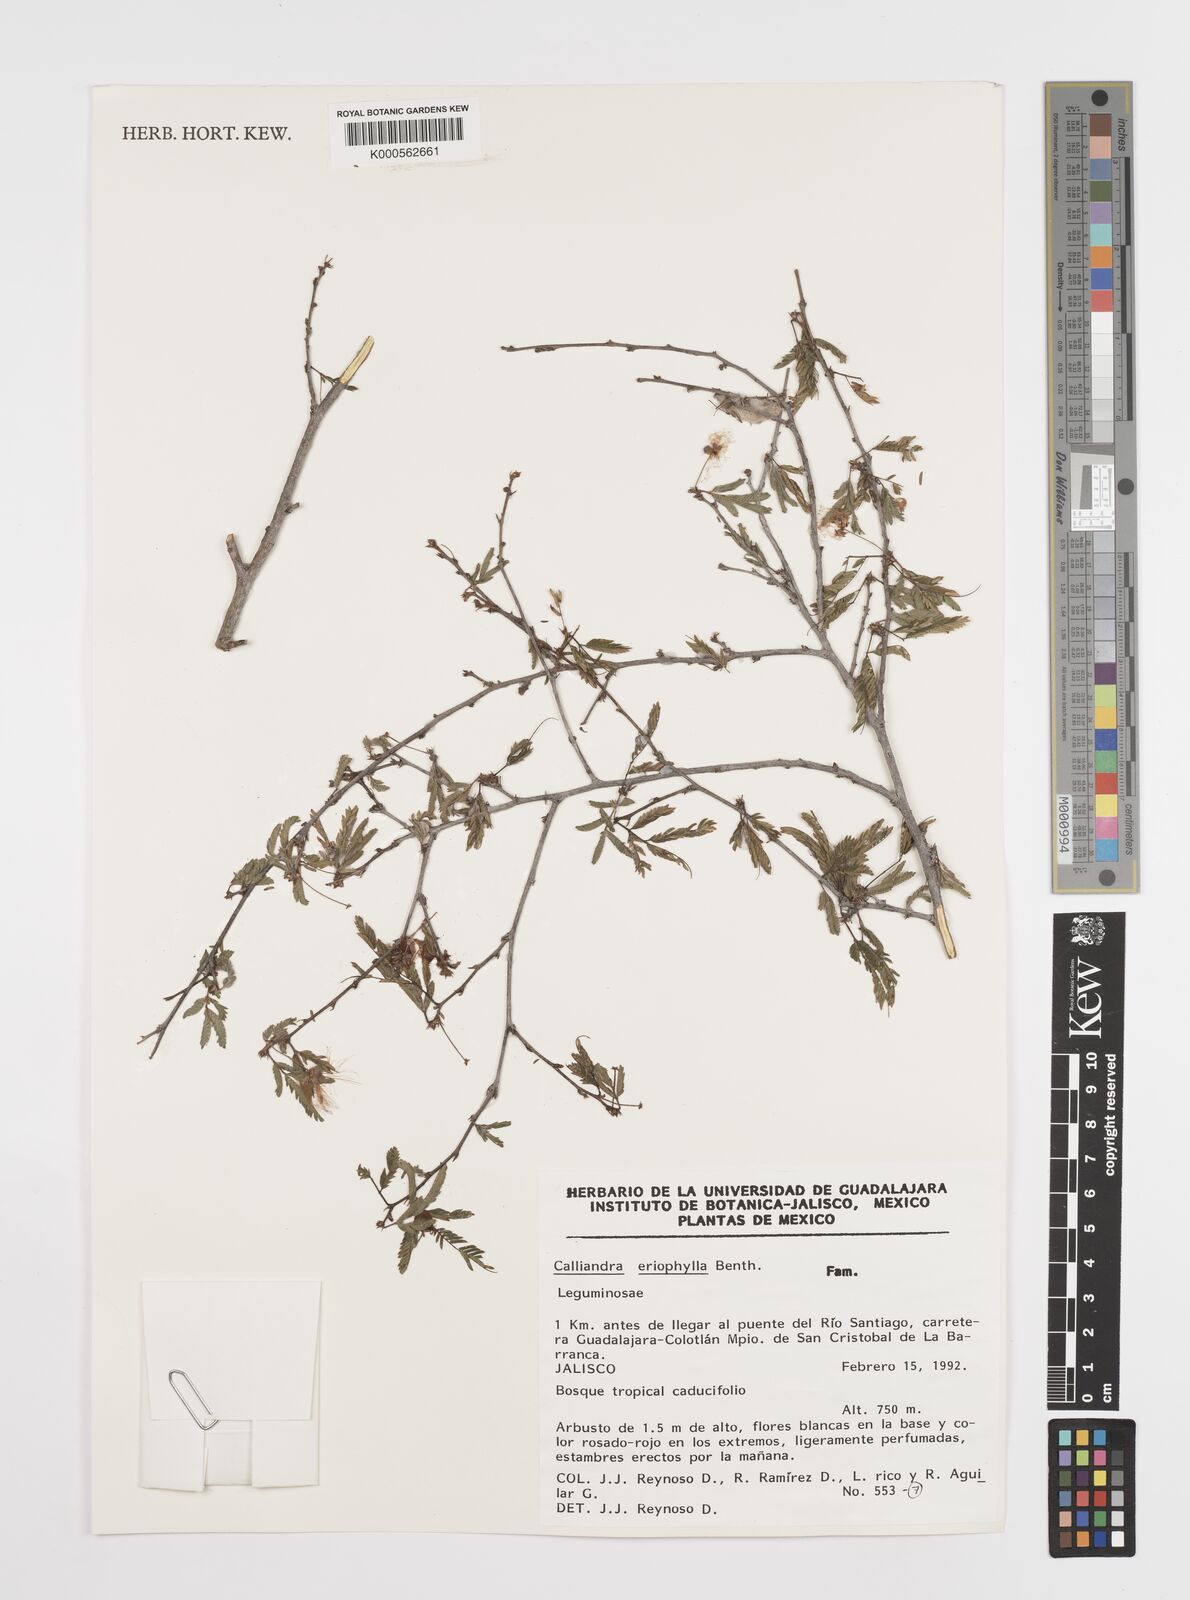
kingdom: Plantae
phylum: Tracheophyta
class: Magnoliopsida
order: Fabales
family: Fabaceae
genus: Calliandra
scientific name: Calliandra eriophylla
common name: Fairy-duster
